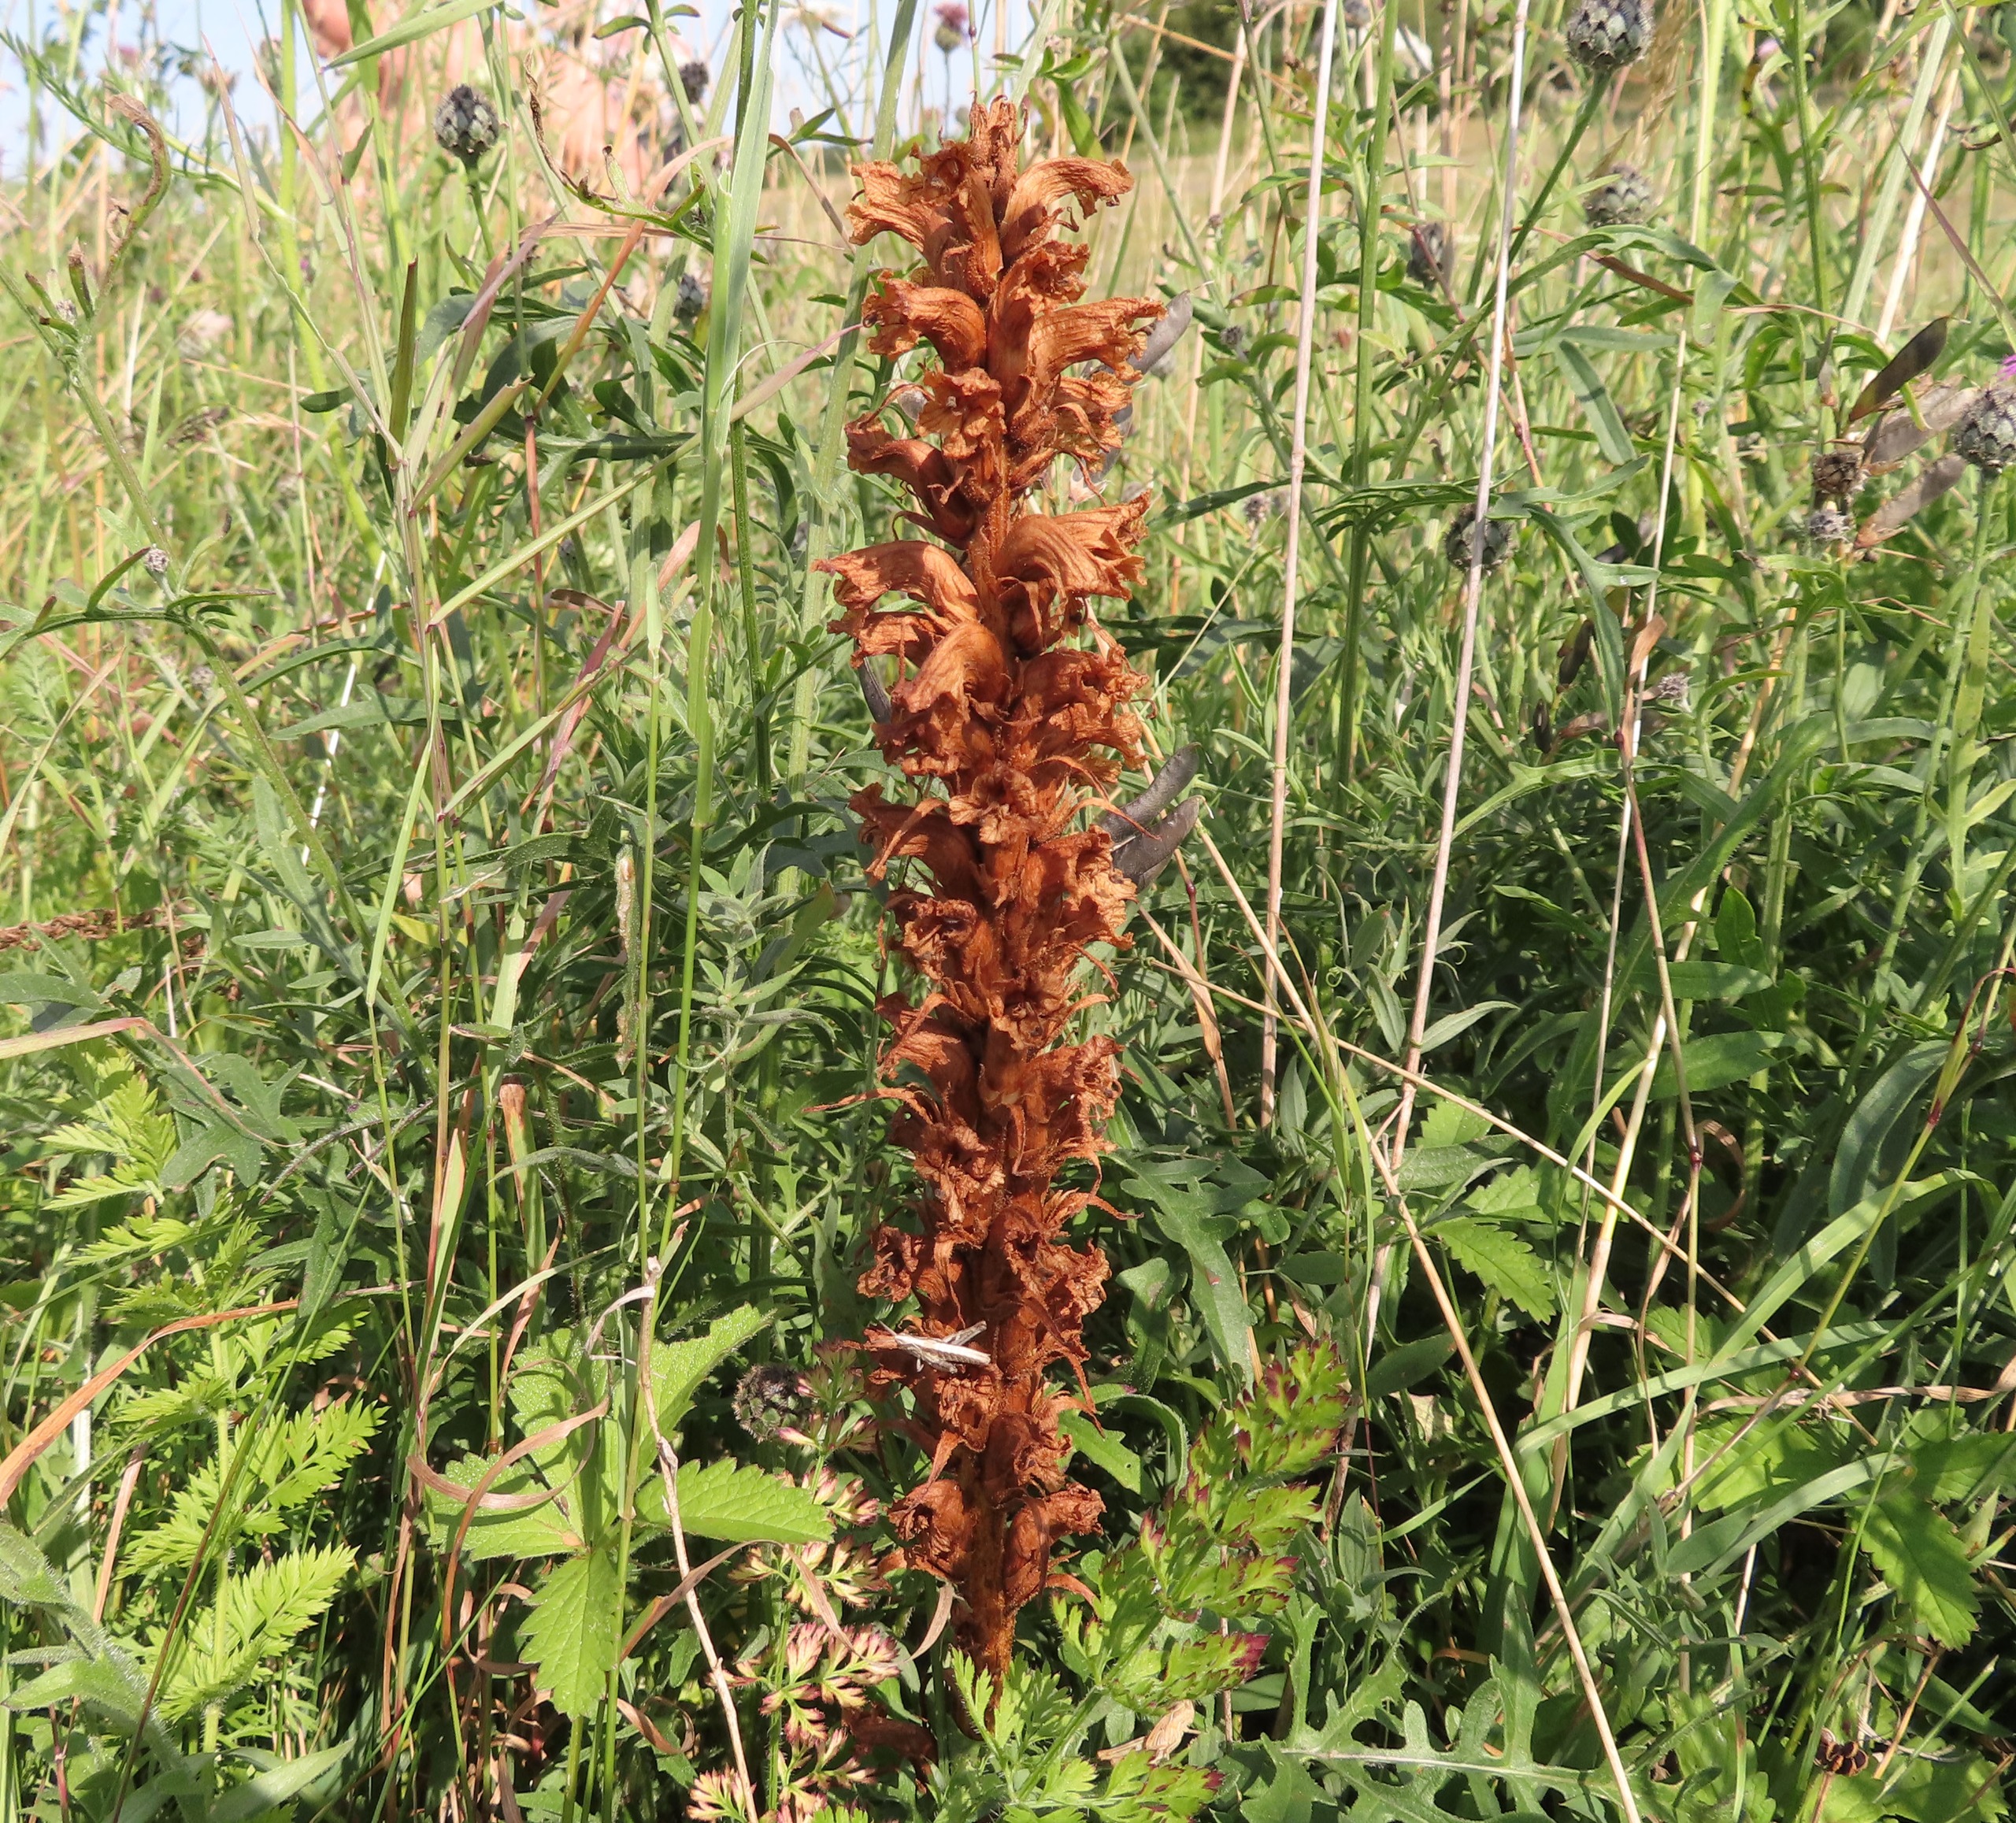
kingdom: Plantae
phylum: Tracheophyta
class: Magnoliopsida
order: Lamiales
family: Orobanchaceae
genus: Orobanche
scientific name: Orobanche elatior
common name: Stor gyvelkvæler
